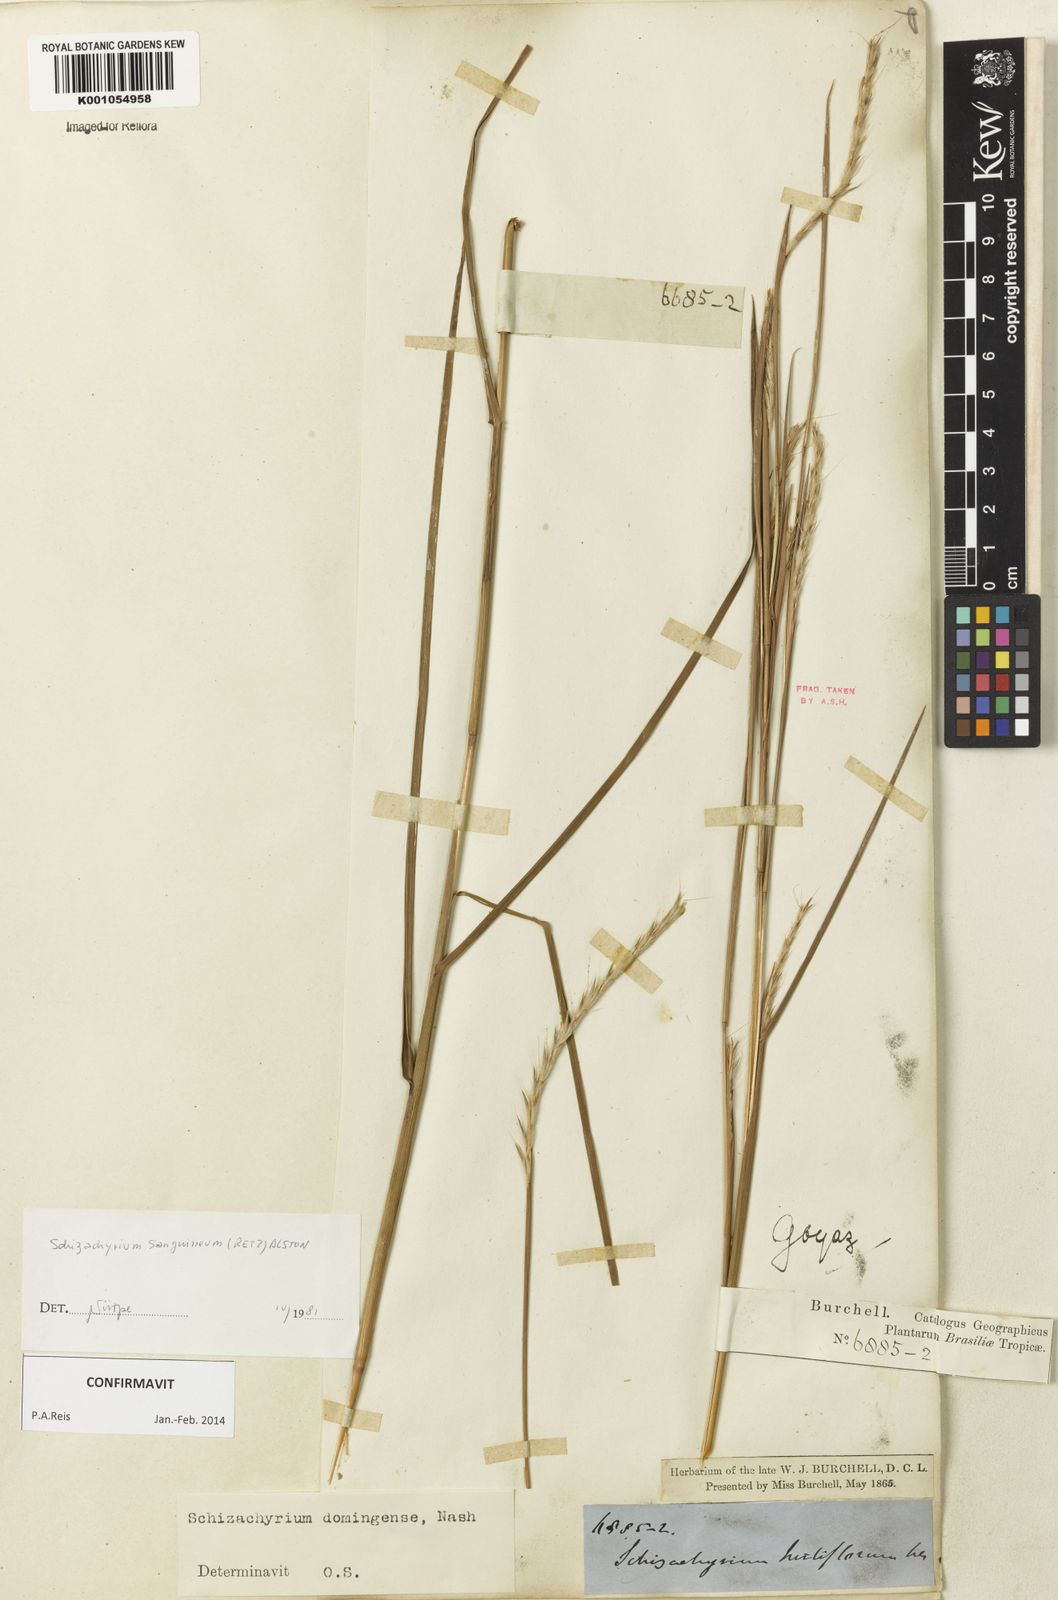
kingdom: Plantae
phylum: Tracheophyta
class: Liliopsida
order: Poales
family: Poaceae
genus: Schizachyrium
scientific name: Schizachyrium sanguineum
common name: Crimson bluestem
